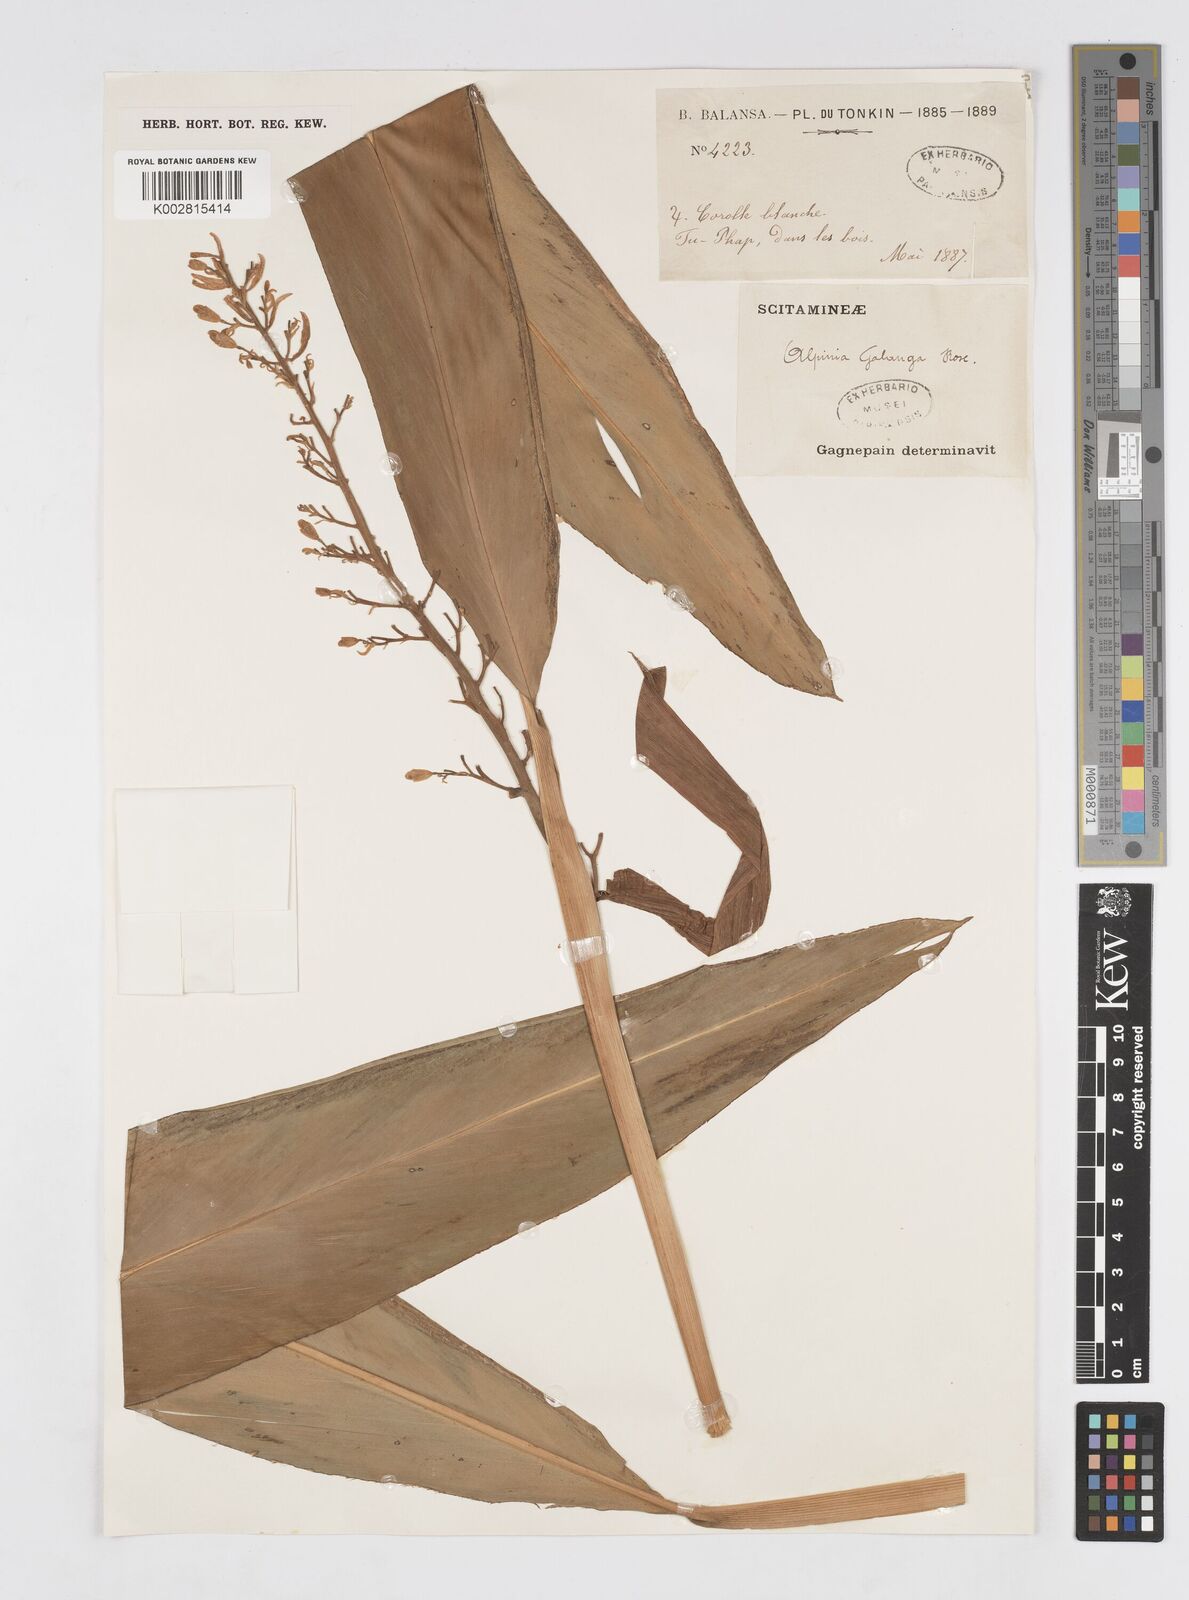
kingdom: Plantae
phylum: Tracheophyta
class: Liliopsida
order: Zingiberales
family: Zingiberaceae
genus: Alpinia
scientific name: Alpinia galanga
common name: Siamese-ginger
